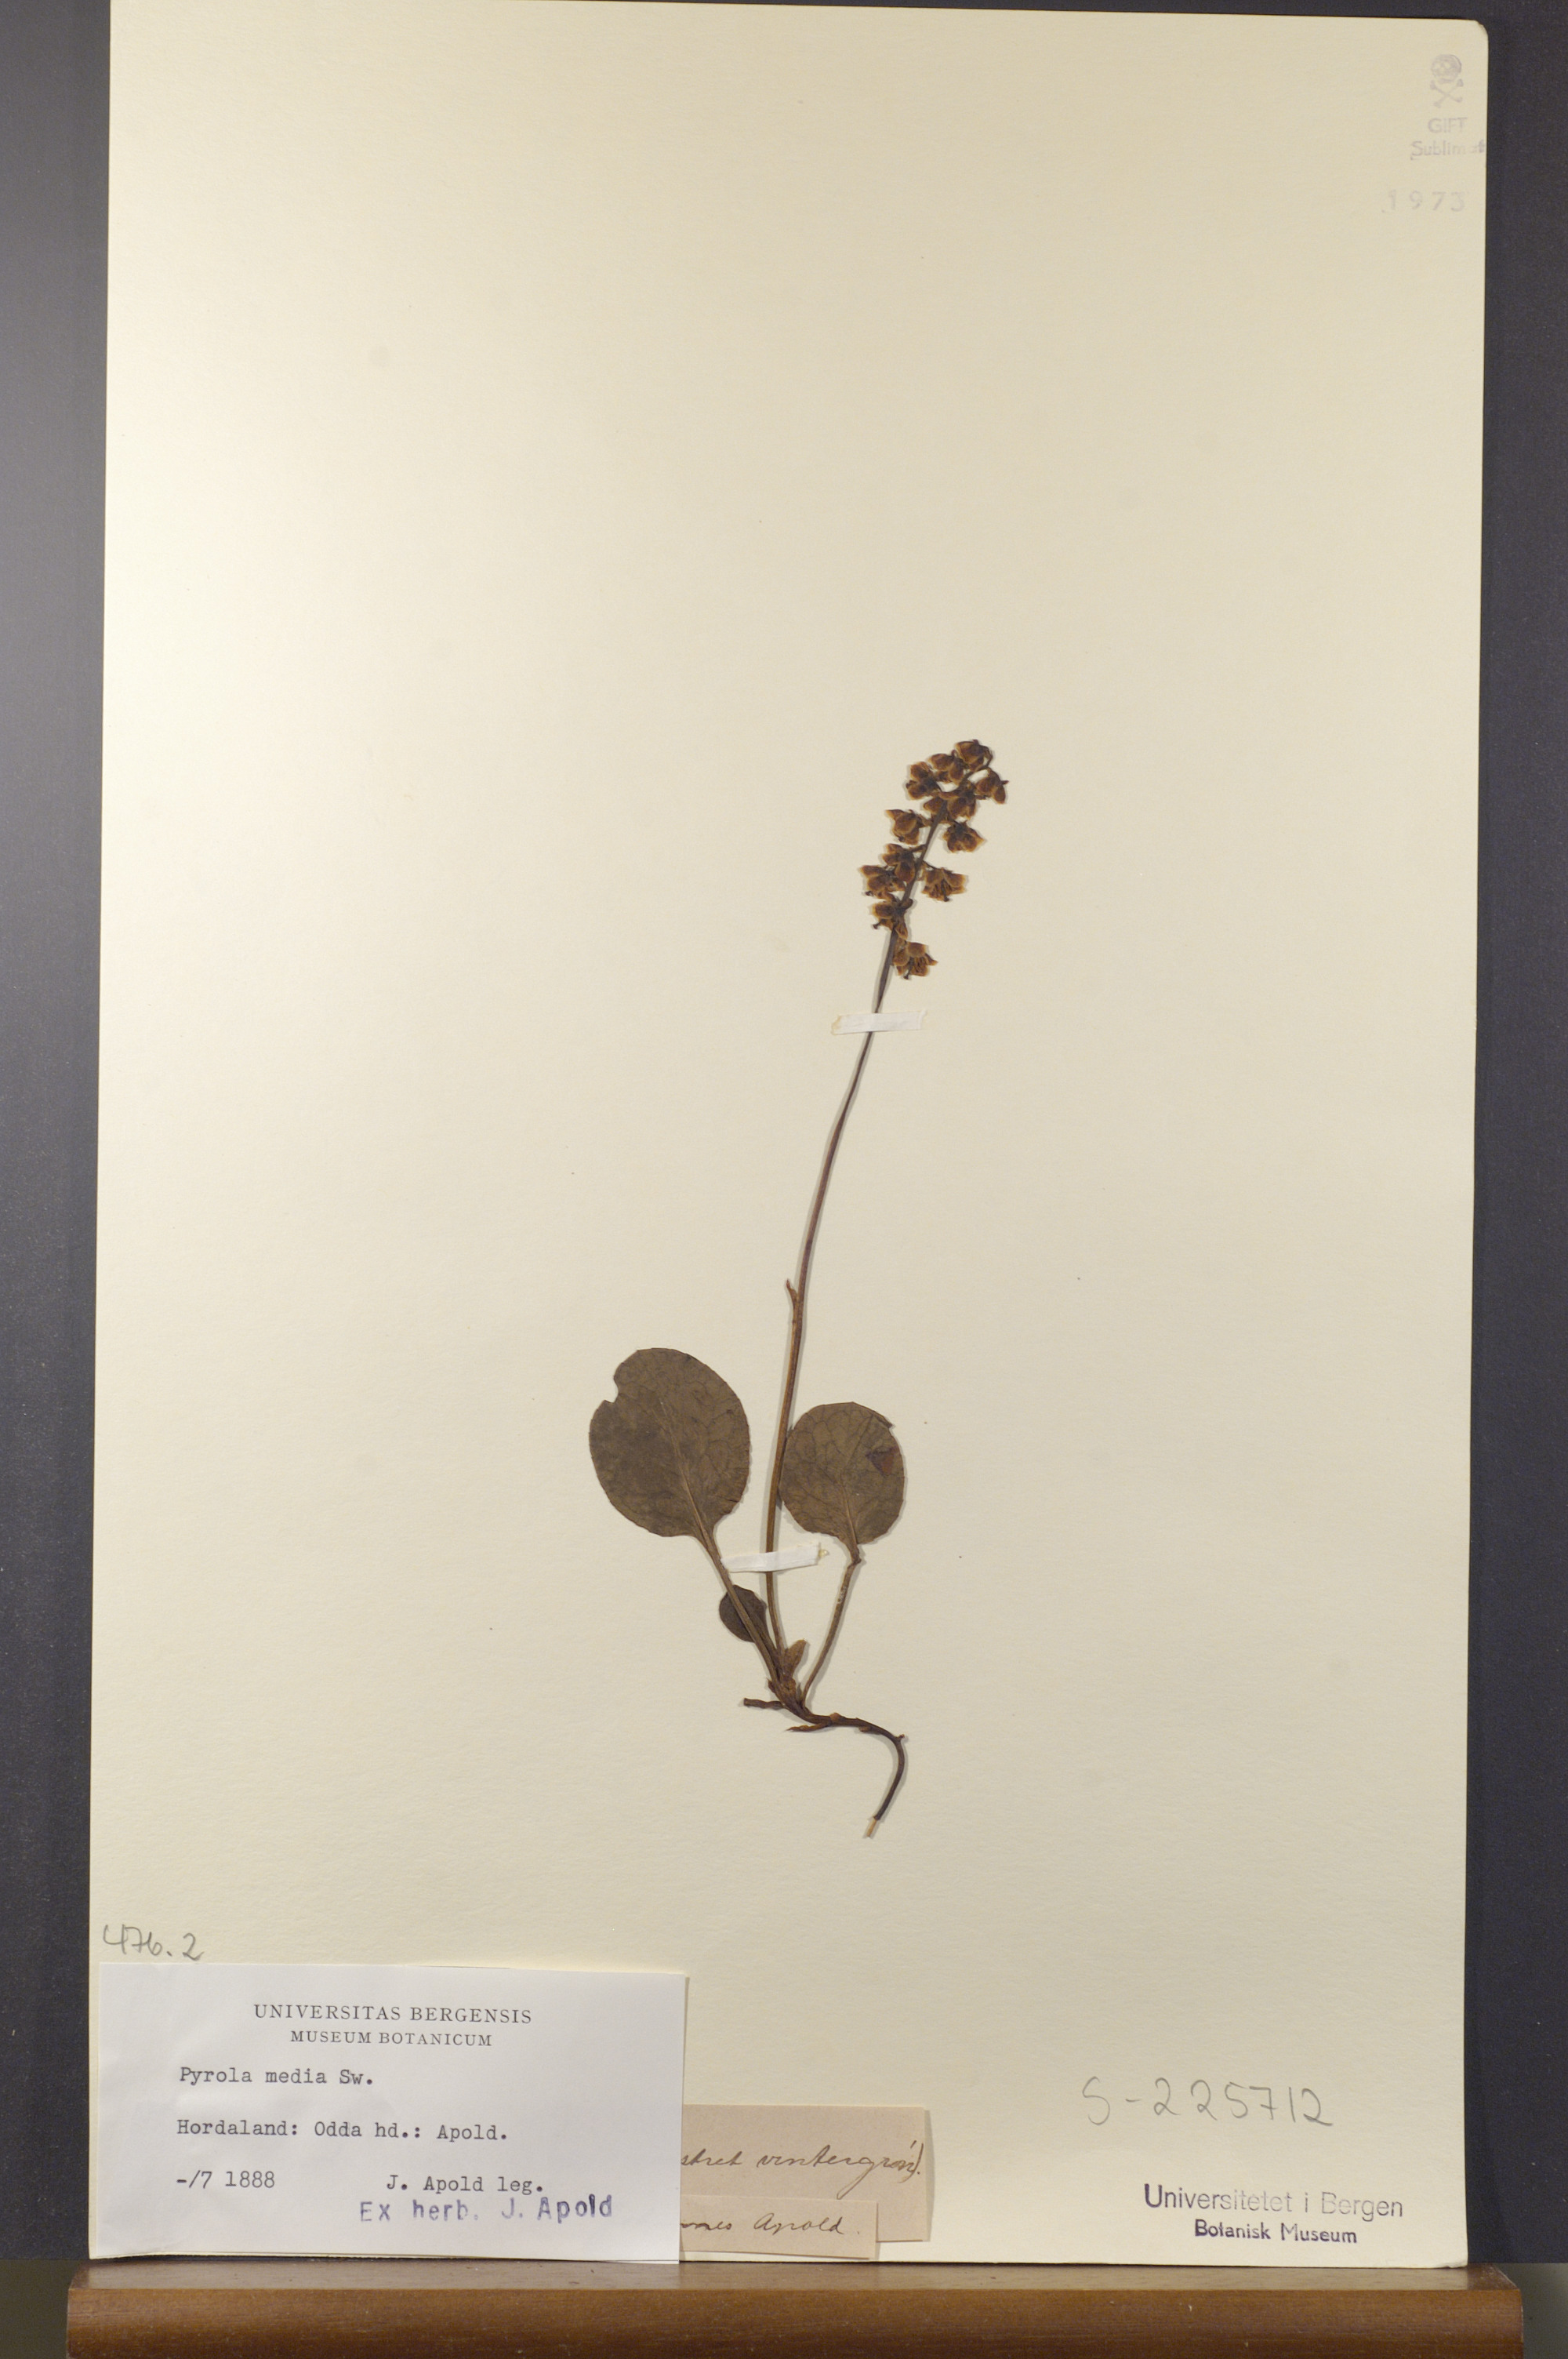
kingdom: Plantae
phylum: Tracheophyta
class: Magnoliopsida
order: Ericales
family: Ericaceae
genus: Pyrola
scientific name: Pyrola media
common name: Intermediate wintergreen
